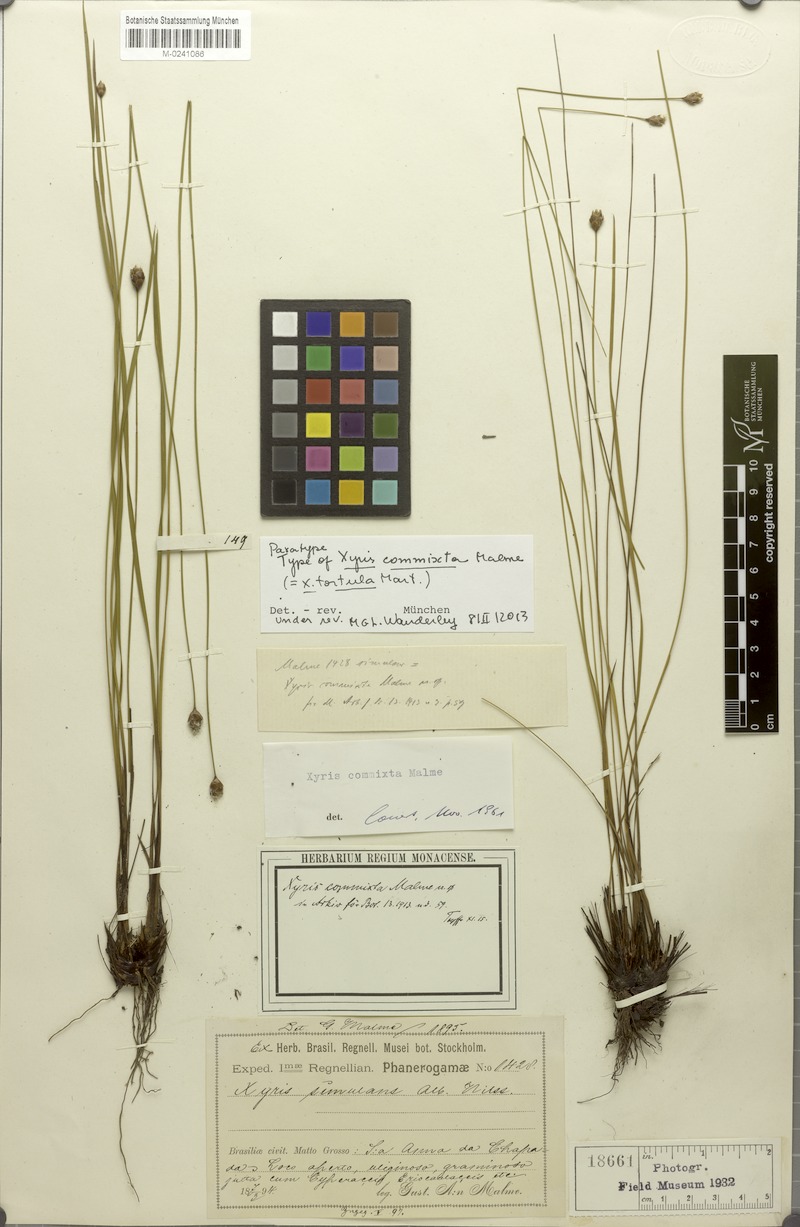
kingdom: Plantae
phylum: Tracheophyta
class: Liliopsida
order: Poales
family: Xyridaceae
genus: Xyris
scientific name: Xyris tortula
